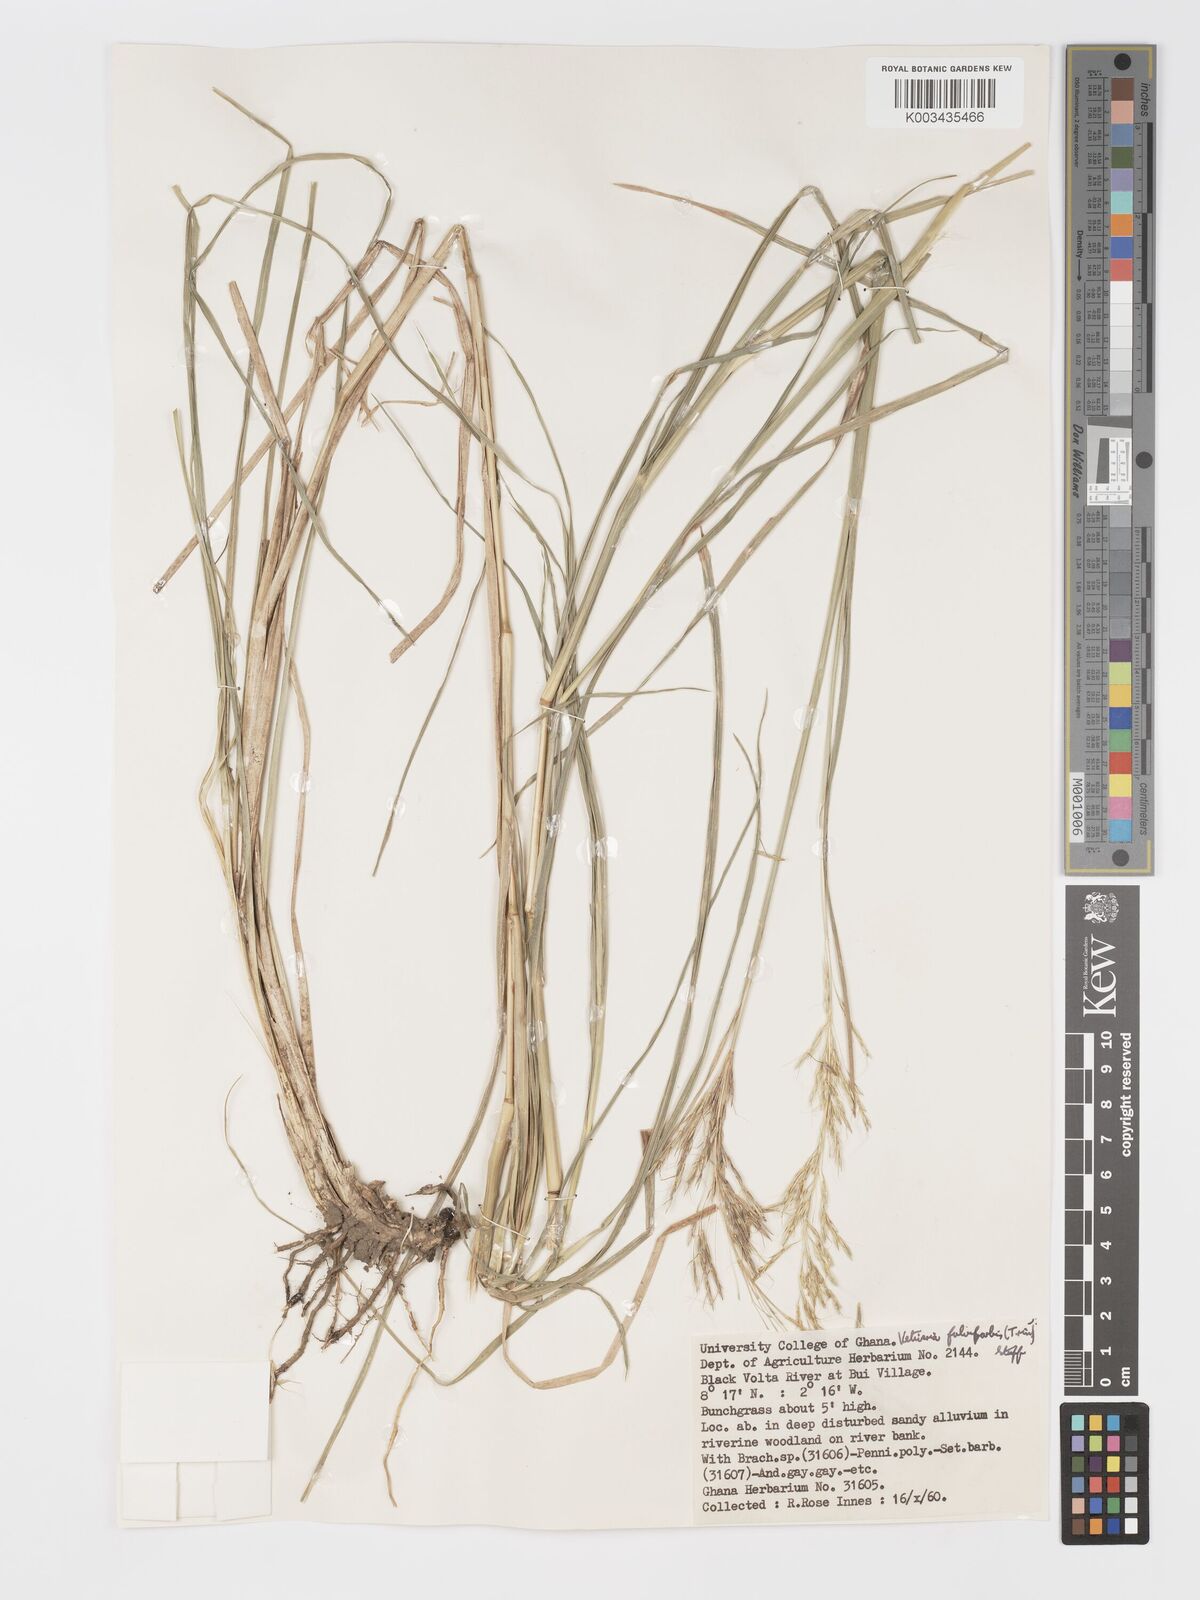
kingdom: Plantae
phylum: Tracheophyta
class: Liliopsida
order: Poales
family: Poaceae
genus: Chrysopogon
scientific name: Chrysopogon fulvibarbis
